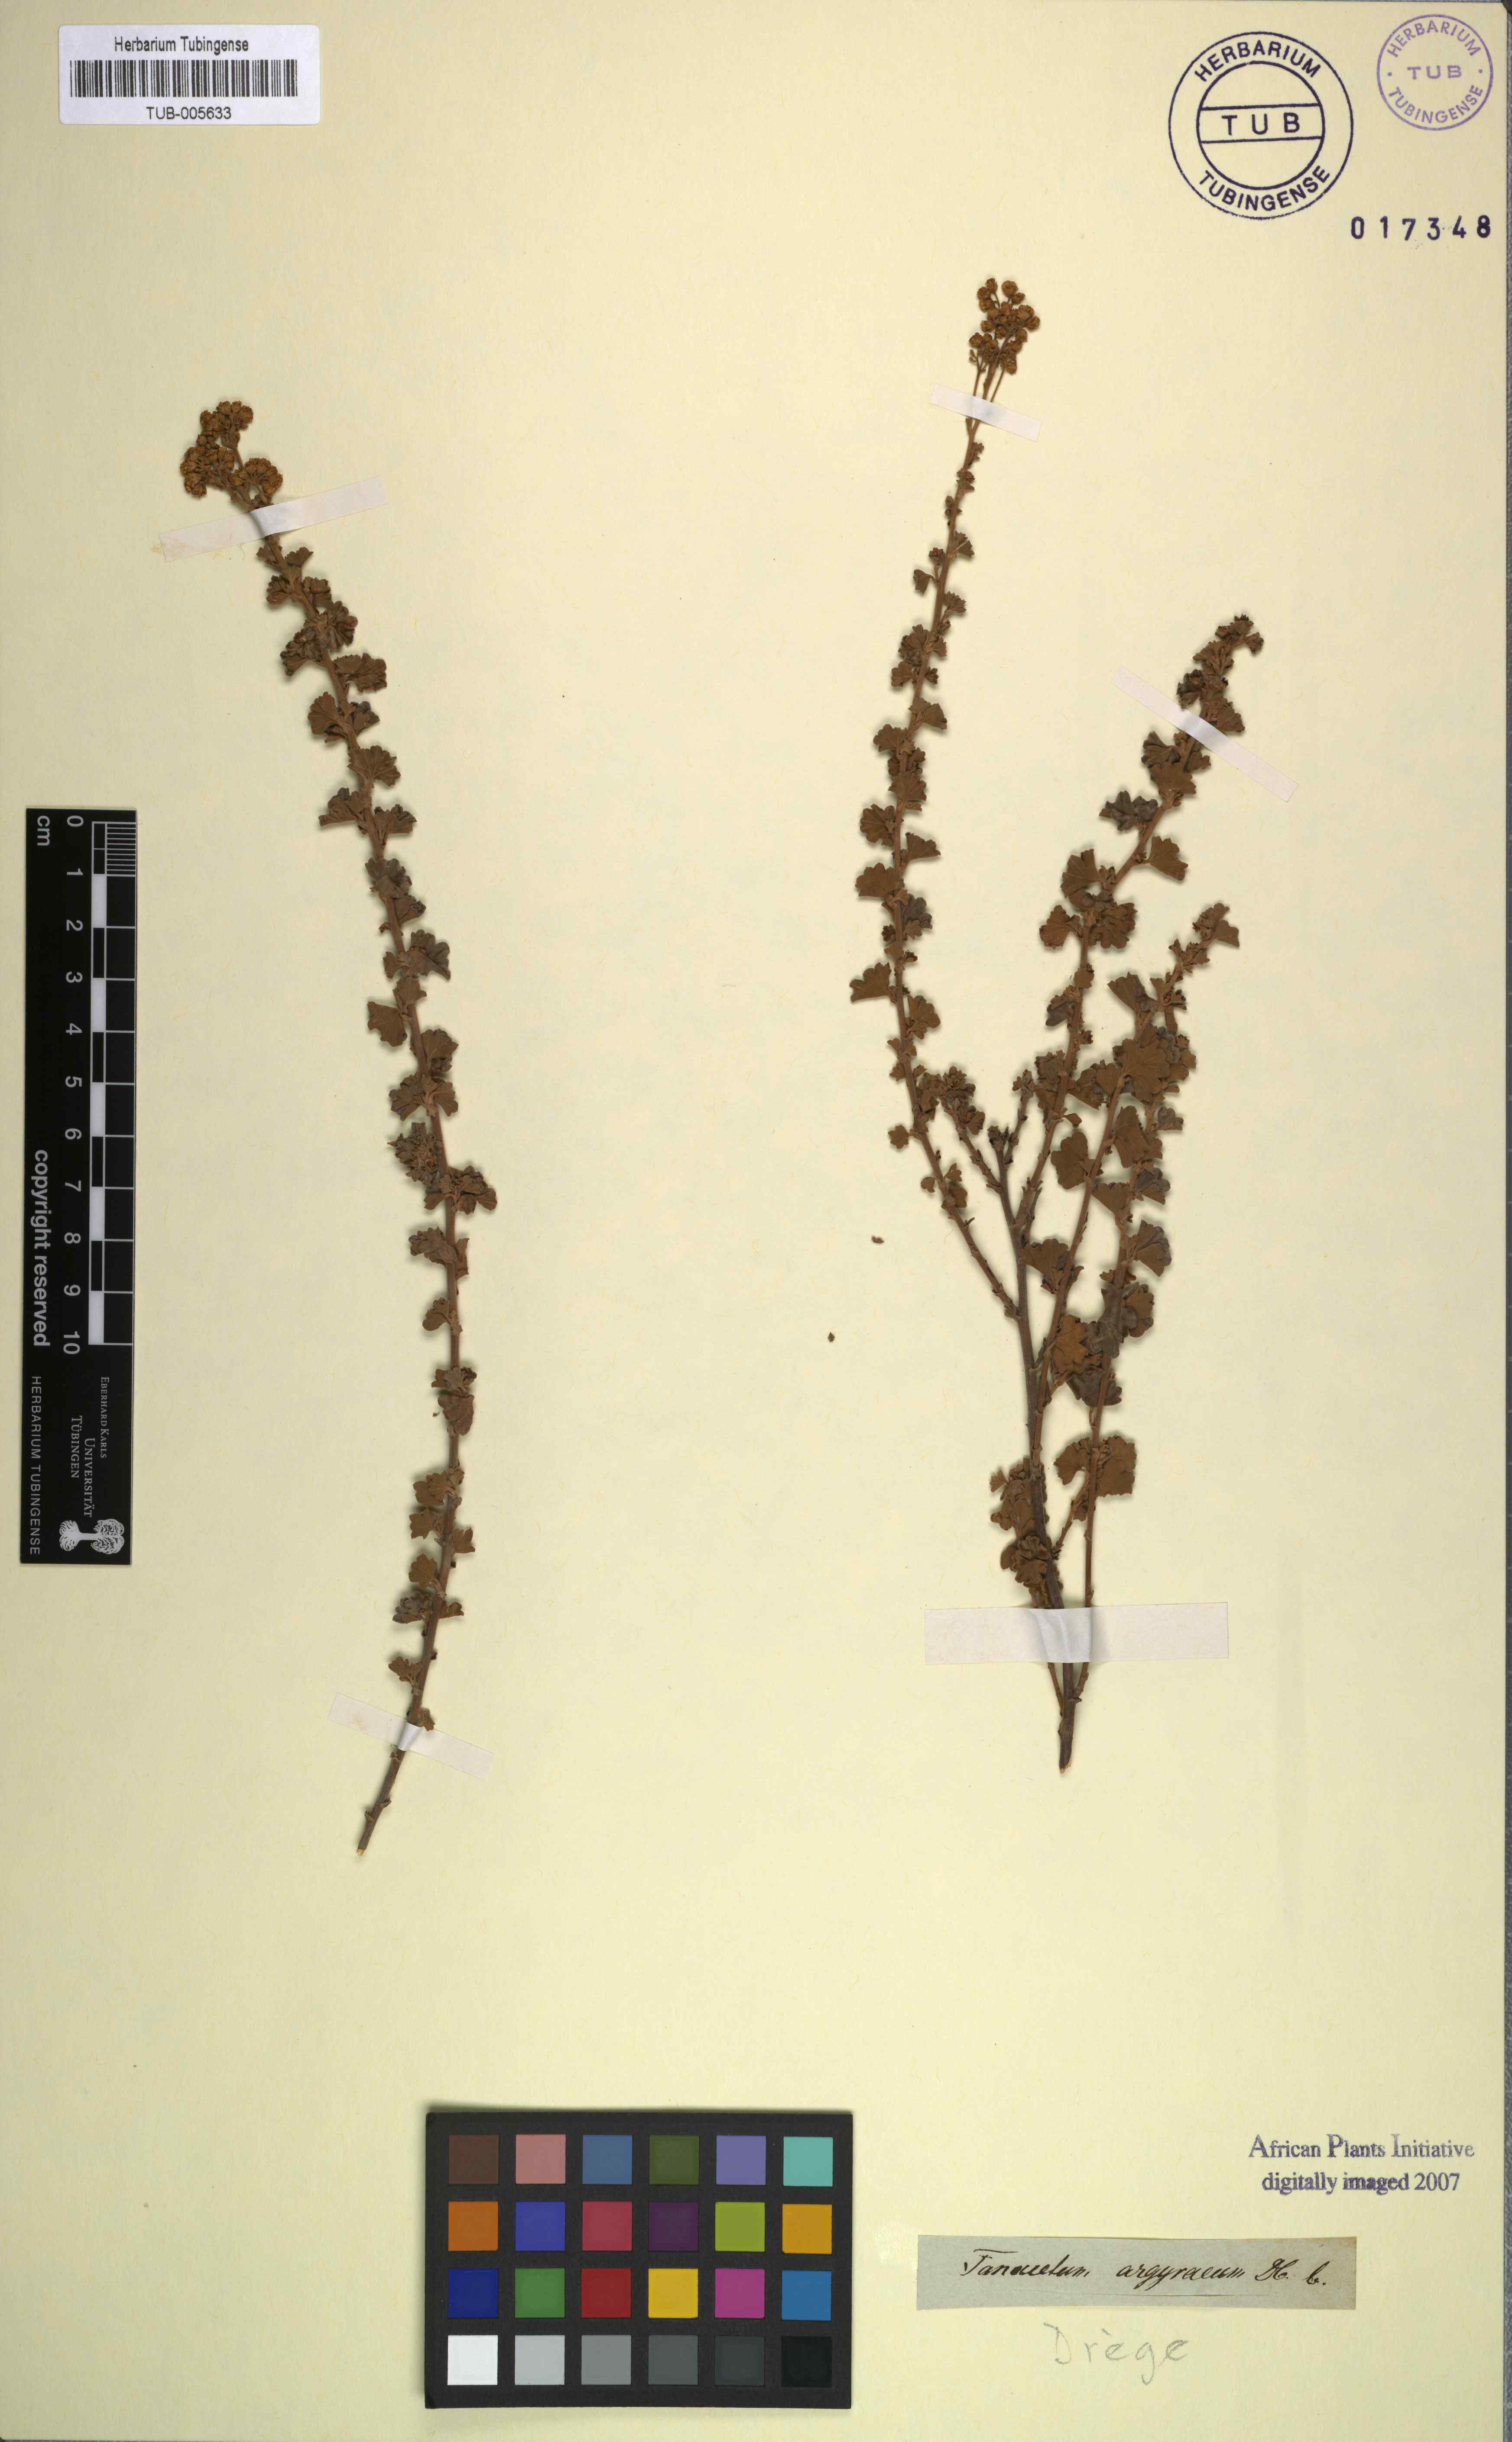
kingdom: Plantae
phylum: Tracheophyta
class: Magnoliopsida
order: Asterales
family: Asteraceae
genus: Schistostephium
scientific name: Schistostephium flabelliforme
